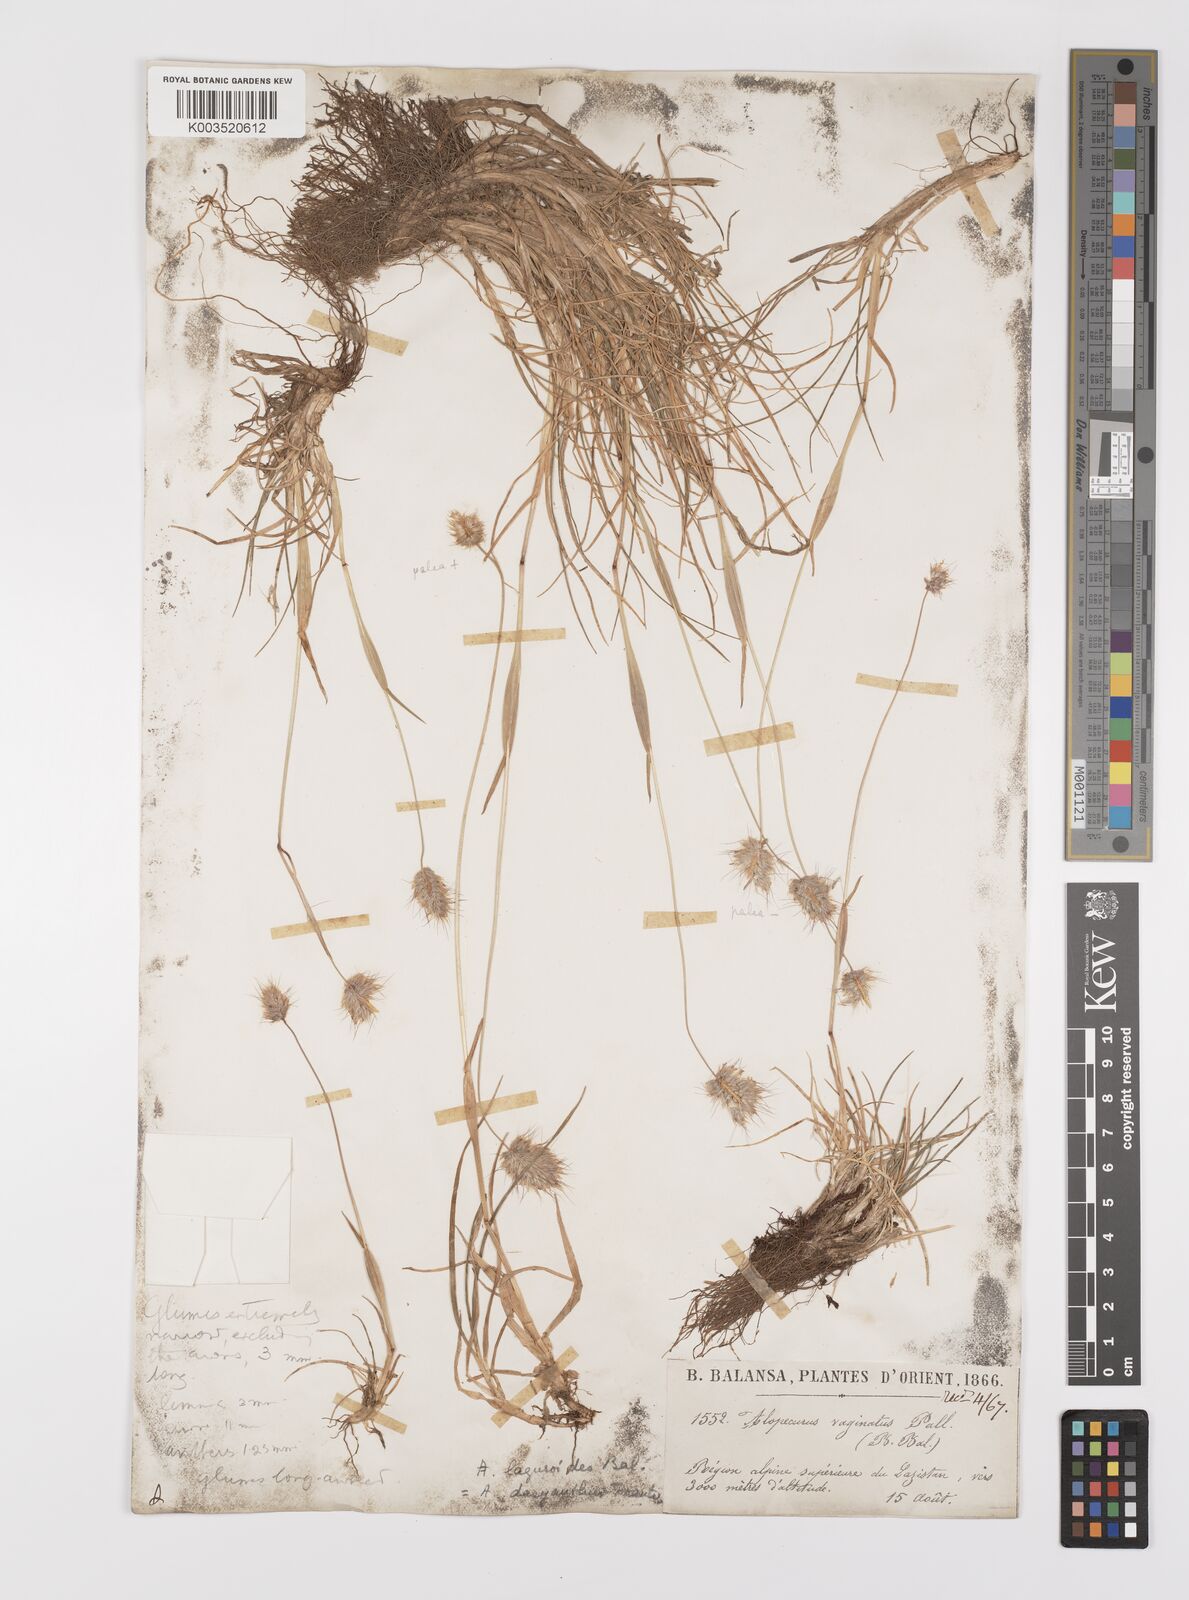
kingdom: Plantae
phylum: Tracheophyta
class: Liliopsida
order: Poales
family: Poaceae
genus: Alopecurus
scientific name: Alopecurus dasyanthus
